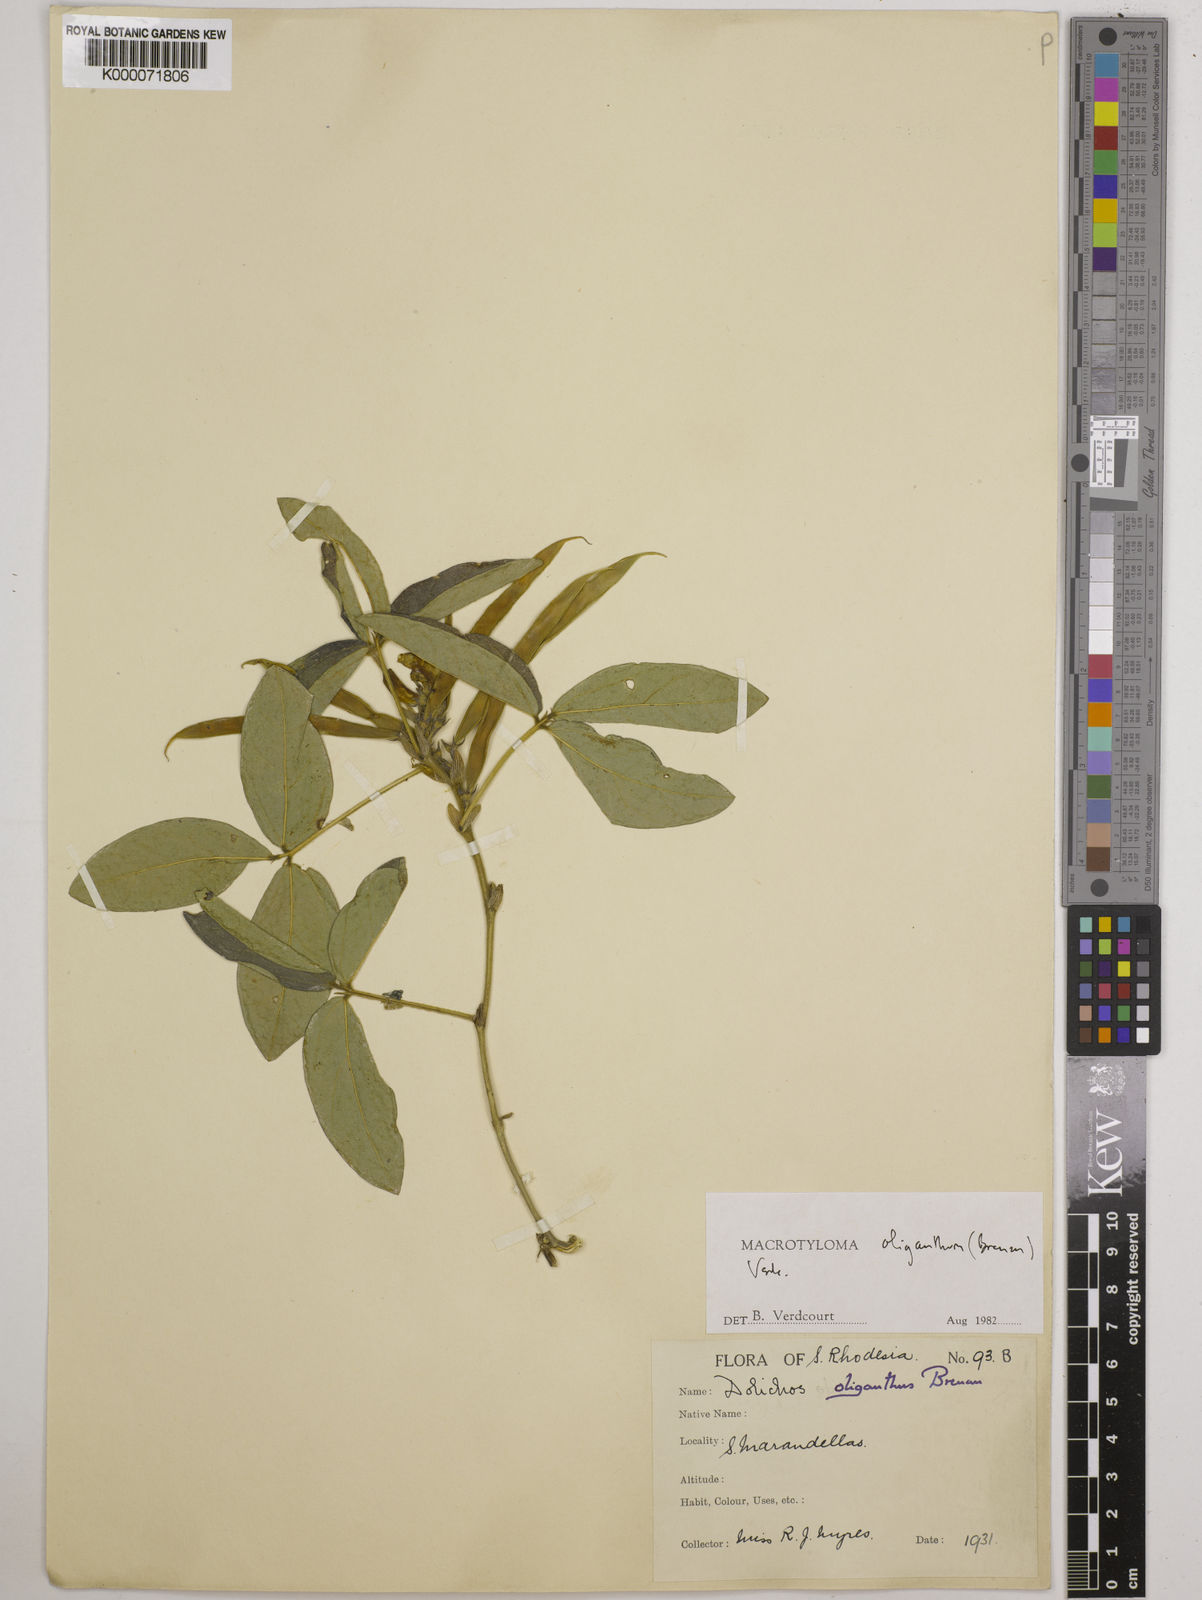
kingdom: Plantae
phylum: Tracheophyta
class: Magnoliopsida
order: Fabales
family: Fabaceae
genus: Macrotyloma
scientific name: Macrotyloma oliganthum
